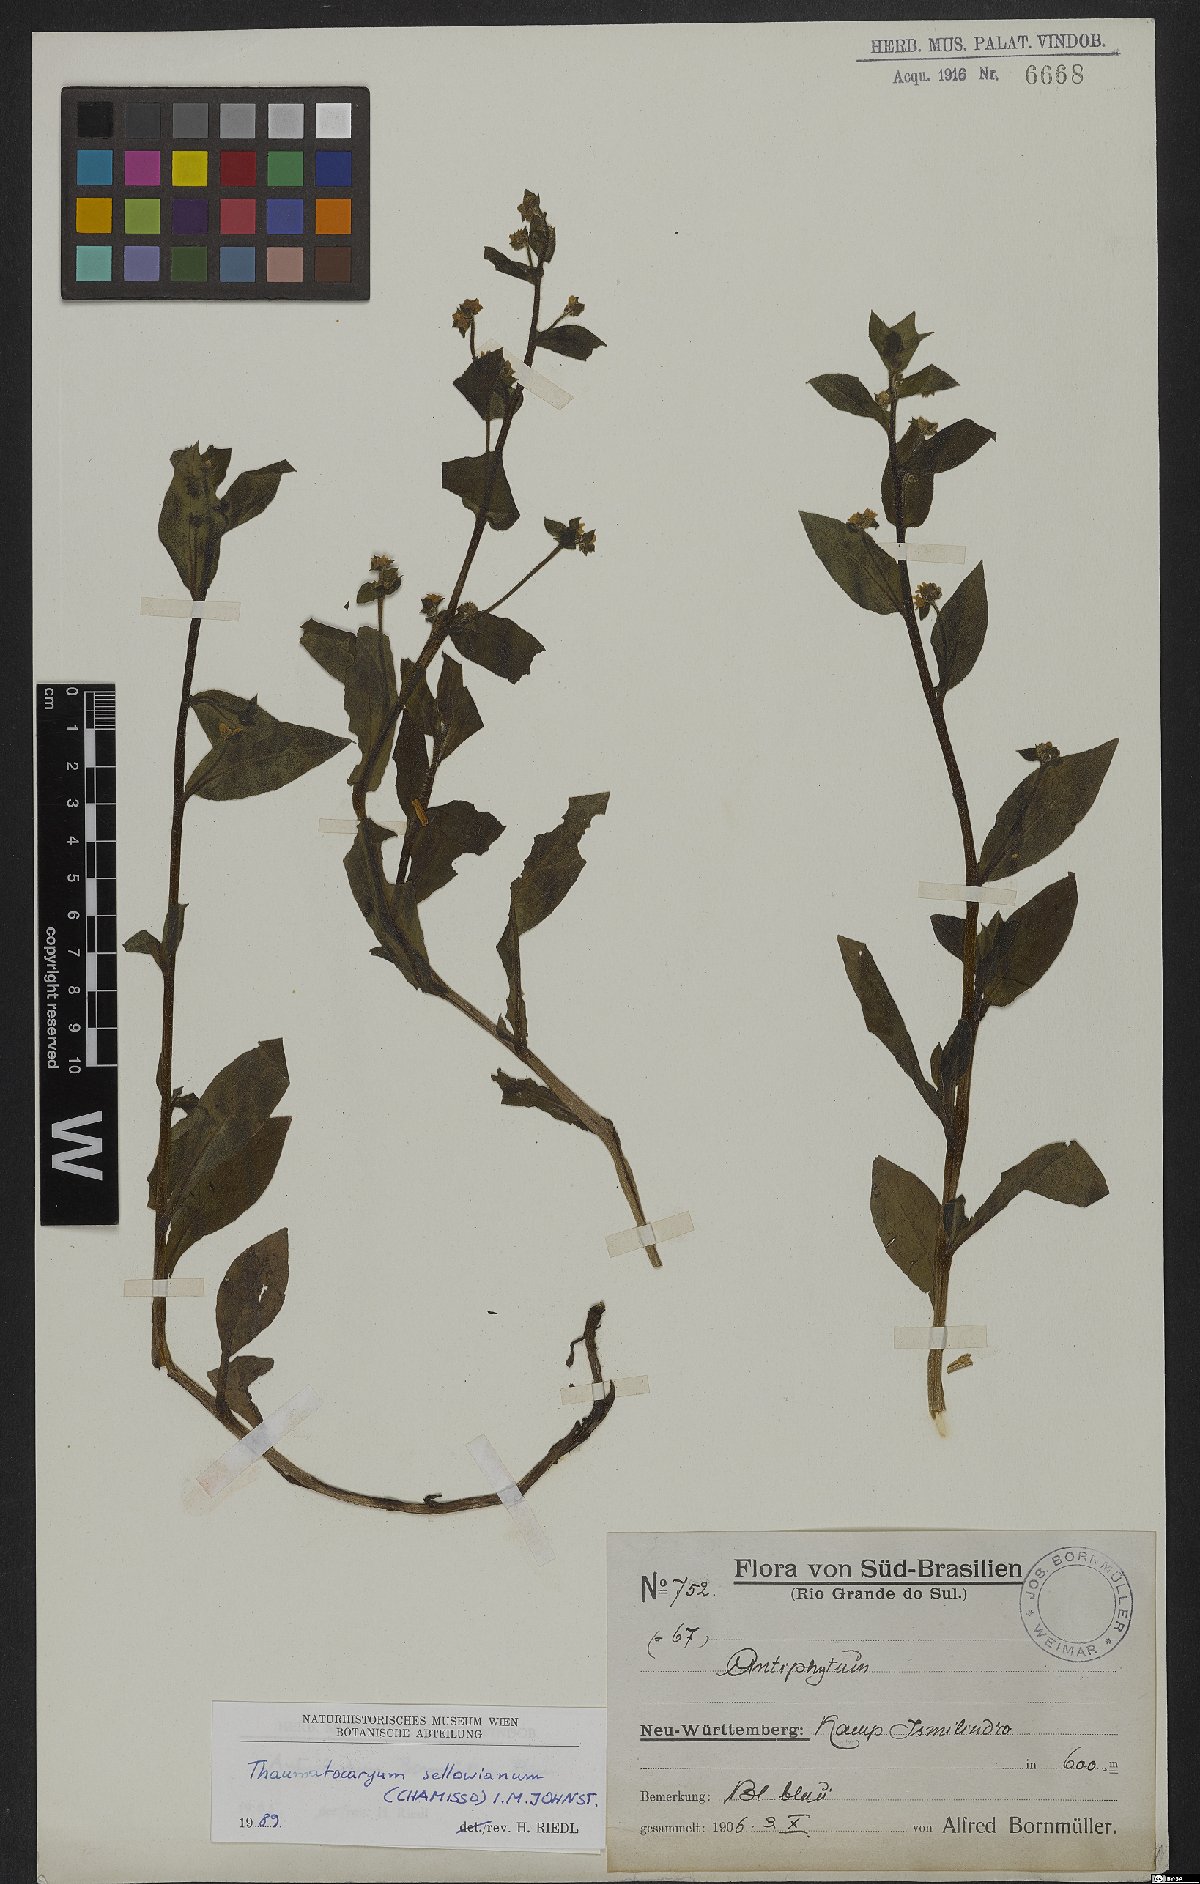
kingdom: Plantae
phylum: Tracheophyta
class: Magnoliopsida
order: Boraginales
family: Boraginaceae
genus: Thaumatocaryon
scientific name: Thaumatocaryon dasyanthum
